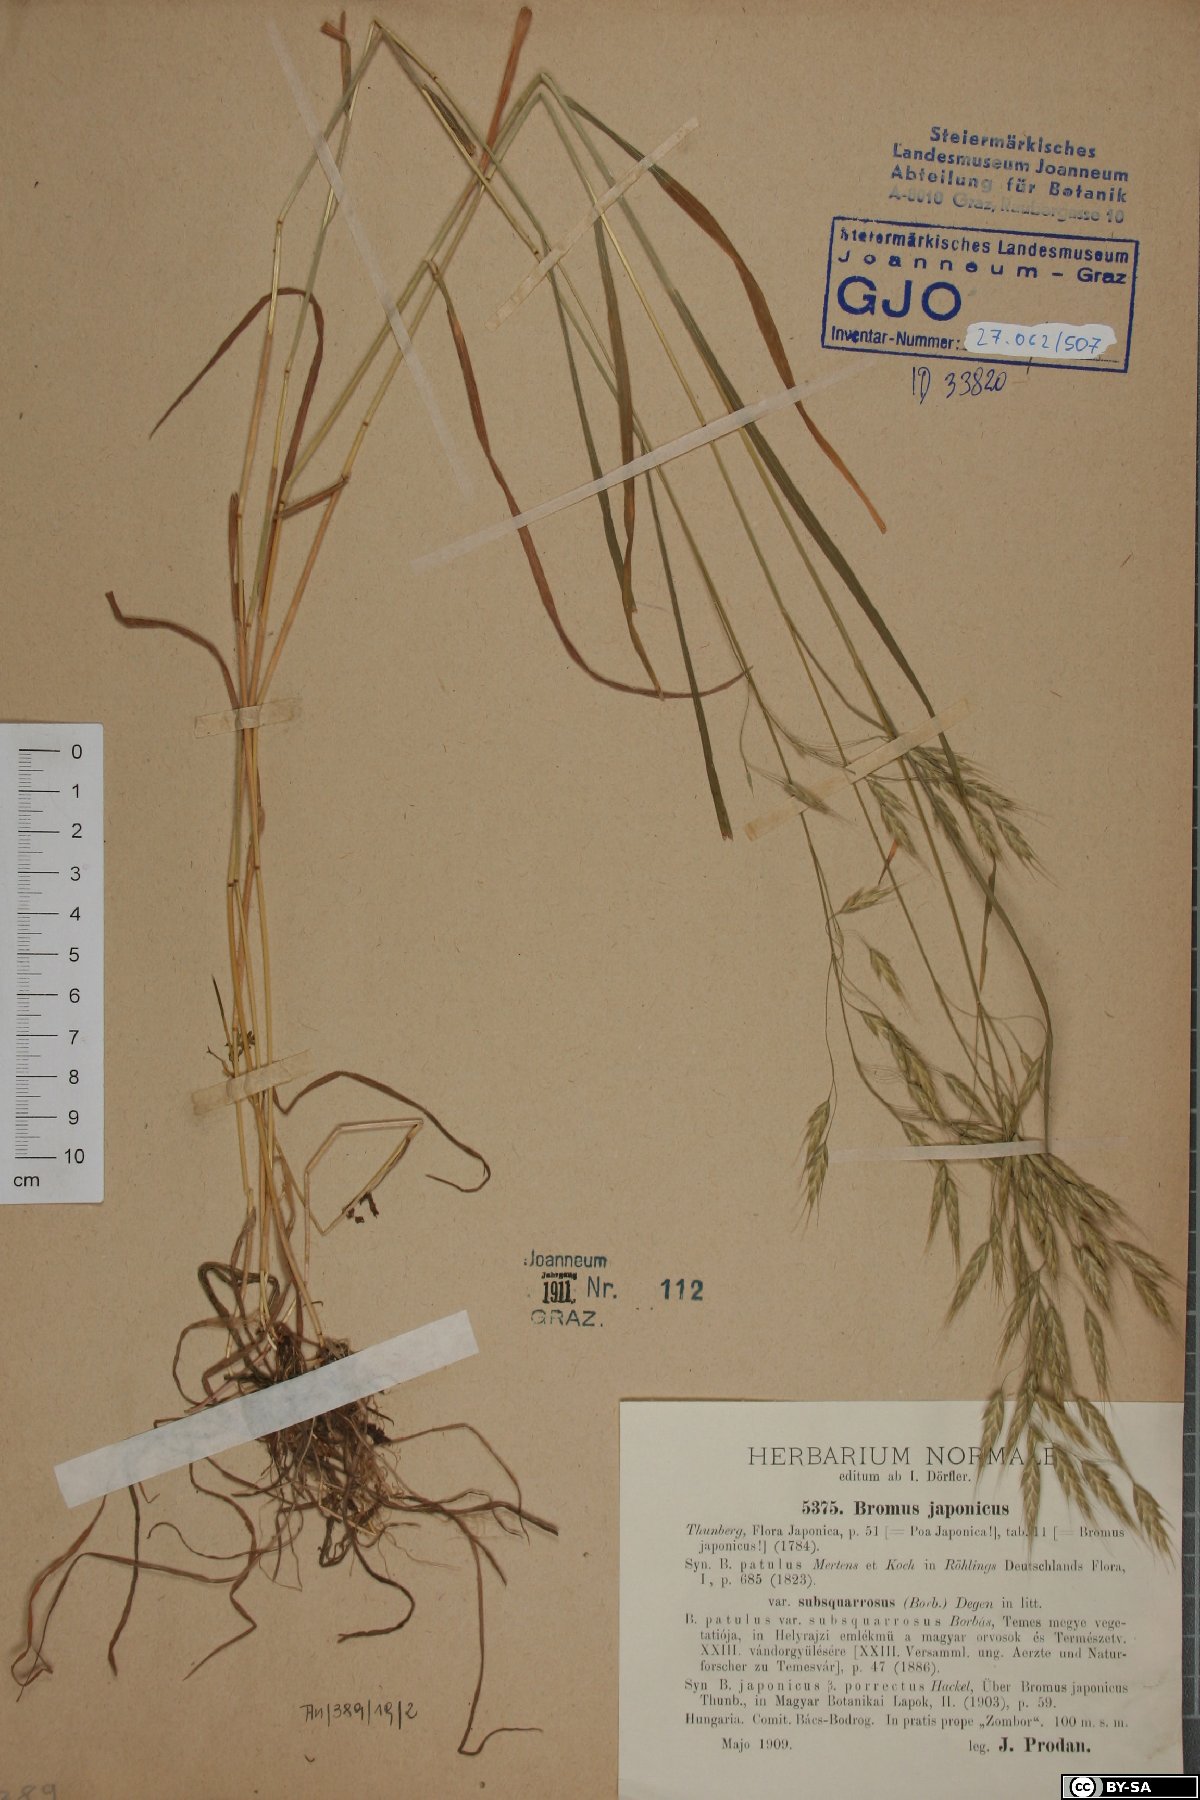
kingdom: Plantae
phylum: Tracheophyta
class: Liliopsida
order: Poales
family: Poaceae
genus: Bromus
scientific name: Bromus japonicus
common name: Japanese brome
